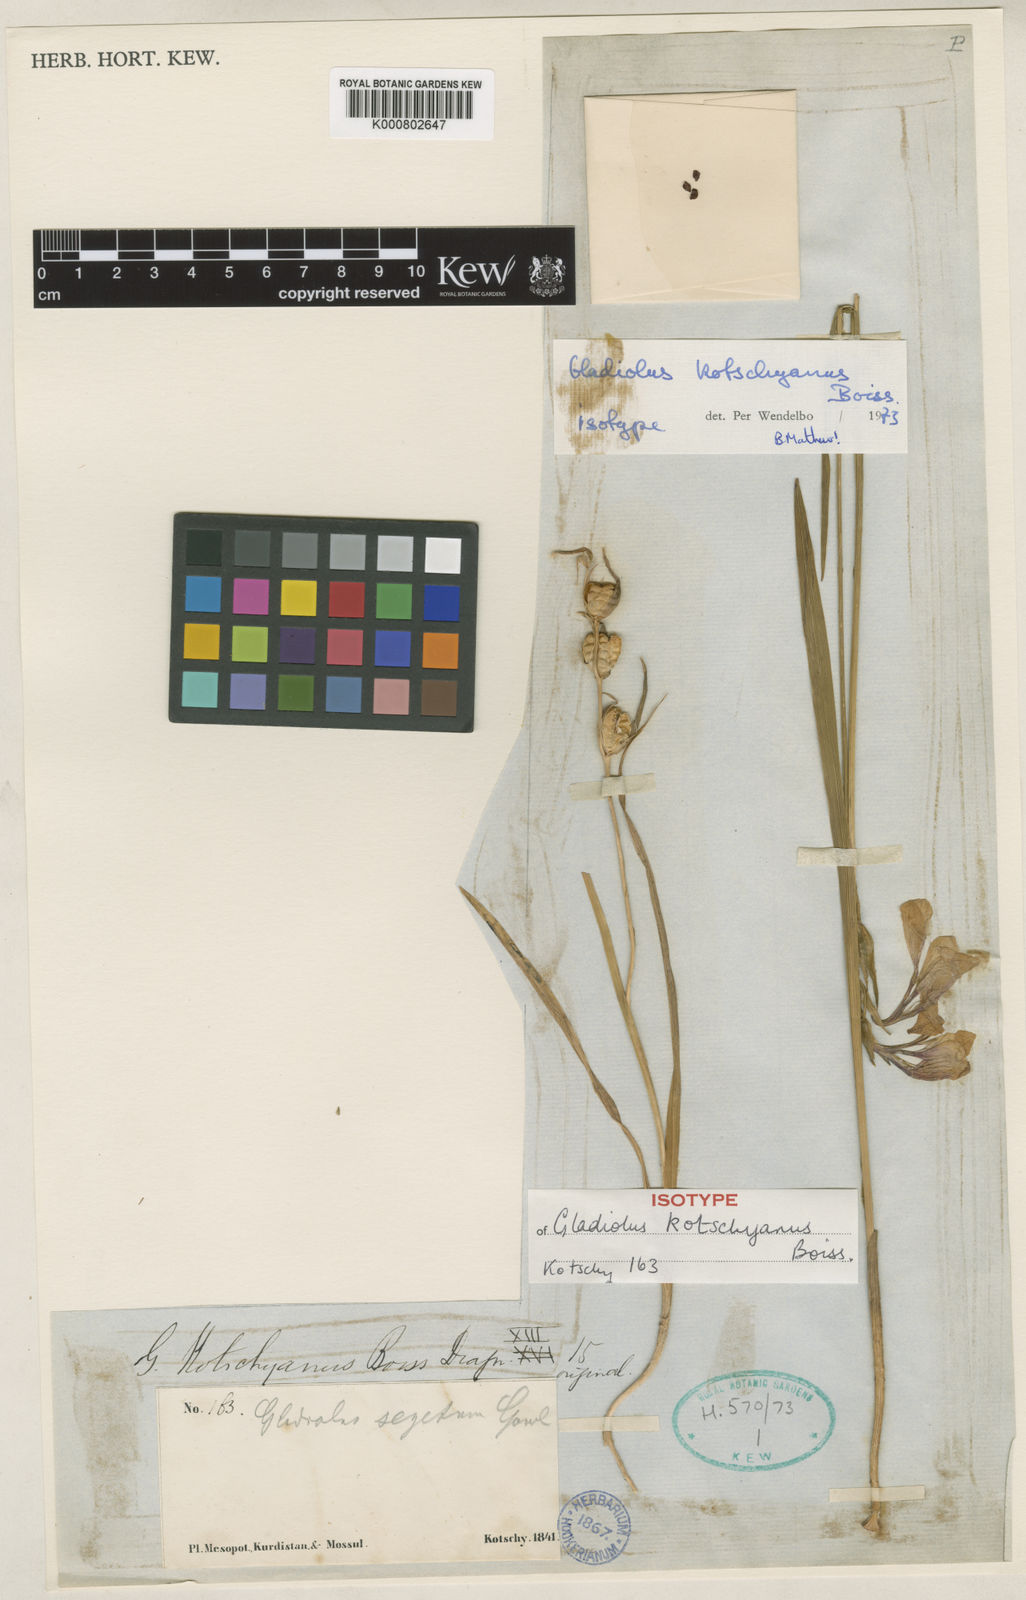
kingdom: Plantae
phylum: Tracheophyta
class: Liliopsida
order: Asparagales
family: Iridaceae
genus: Gladiolus
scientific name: Gladiolus kotschyanus
